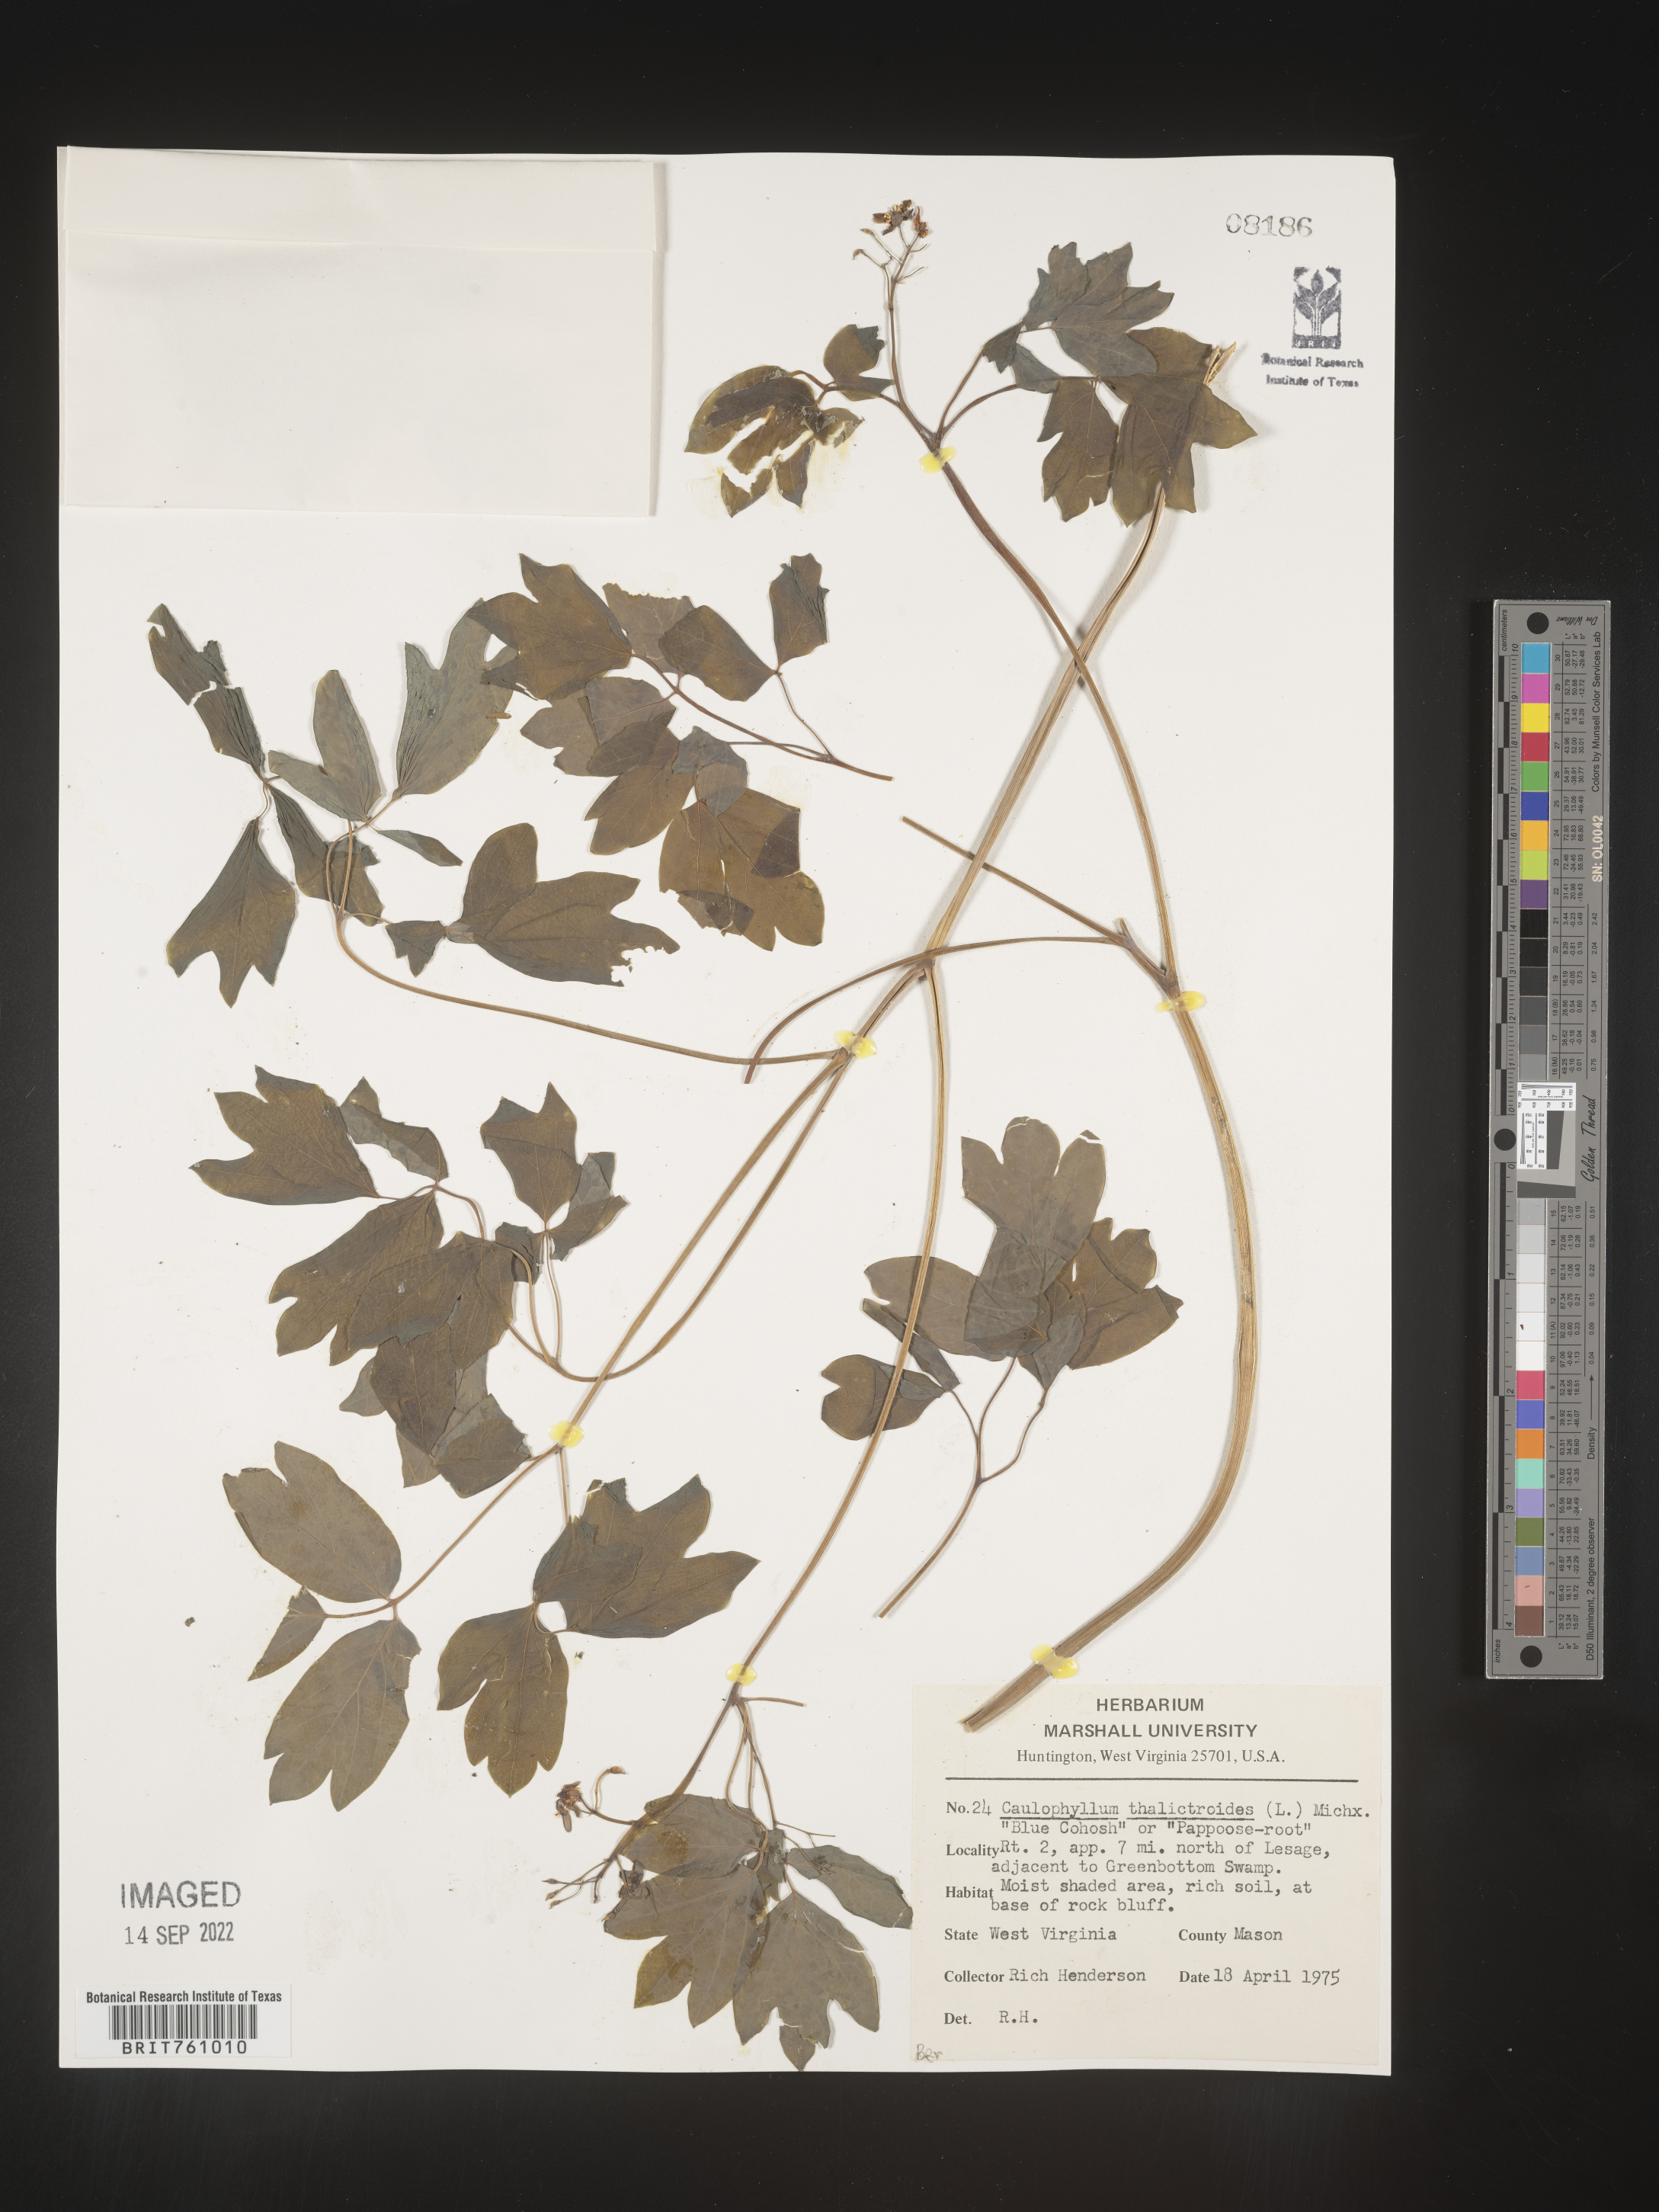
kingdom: Plantae
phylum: Tracheophyta
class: Magnoliopsida
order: Ranunculales
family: Berberidaceae
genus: Caulophyllum
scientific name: Caulophyllum thalictroides
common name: Blue cohosh
